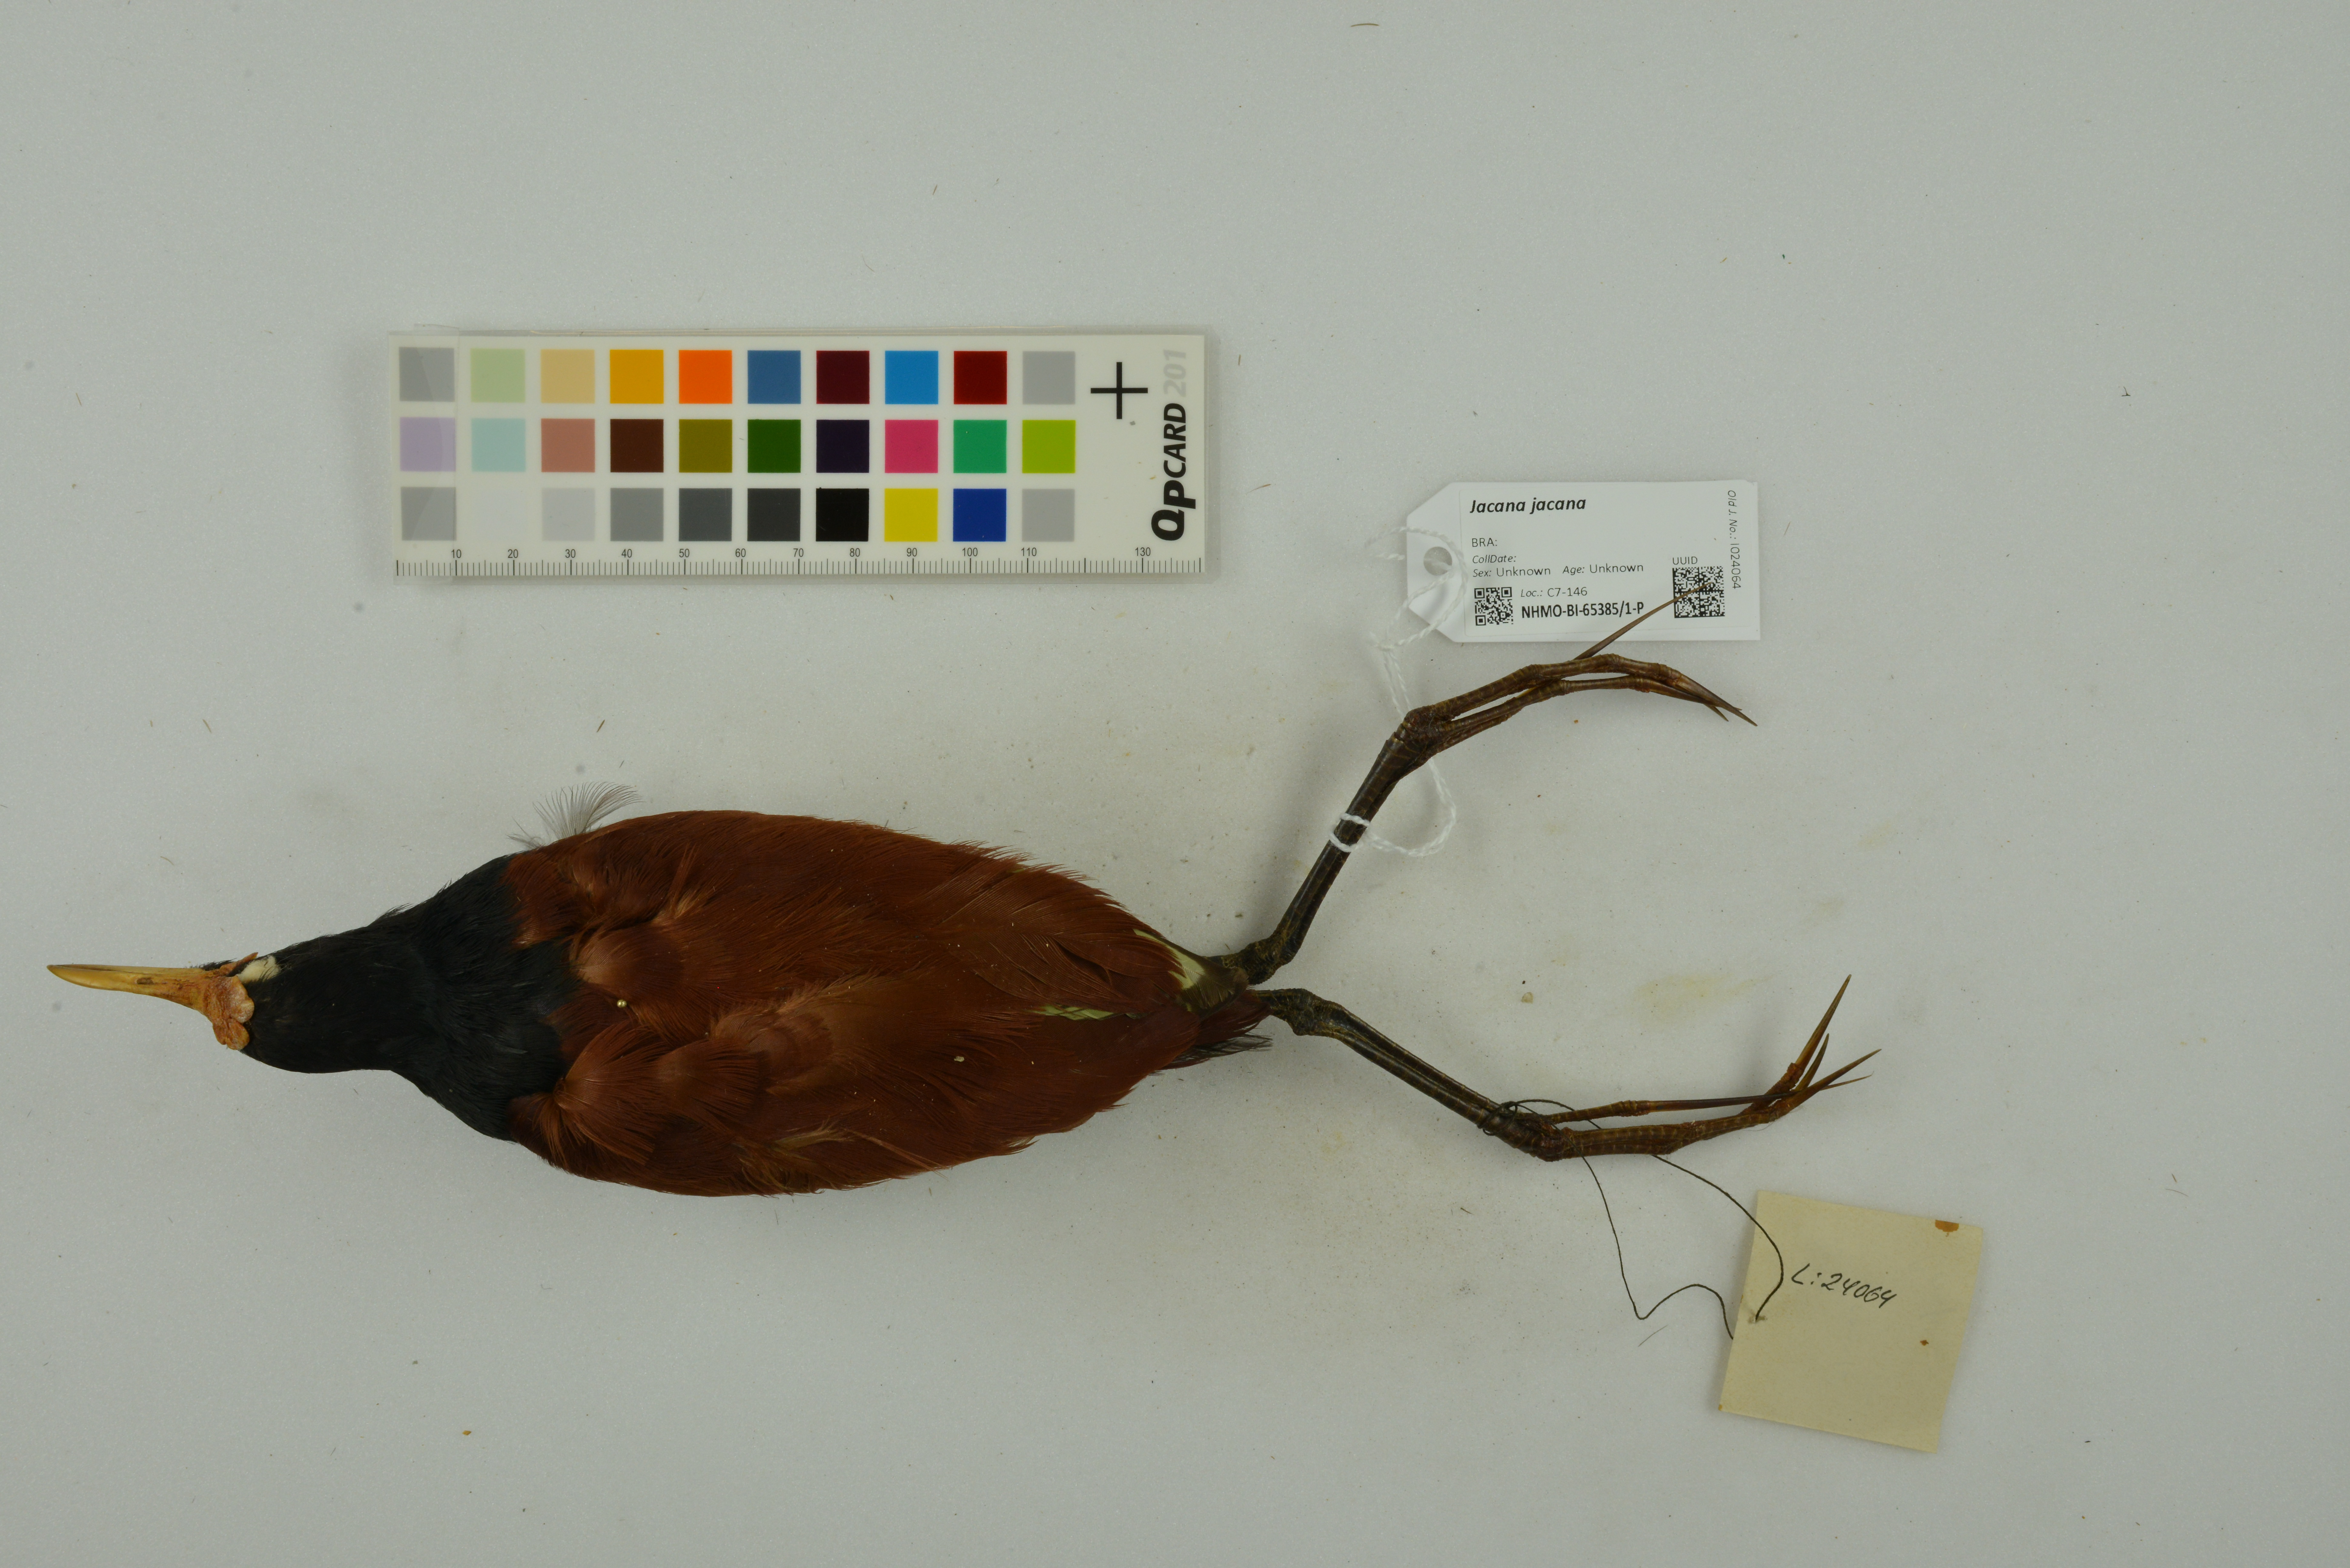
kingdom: Animalia
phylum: Chordata
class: Aves
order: Charadriiformes
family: Jacanidae
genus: Jacana
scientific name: Jacana jacana
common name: Wattled jacana
